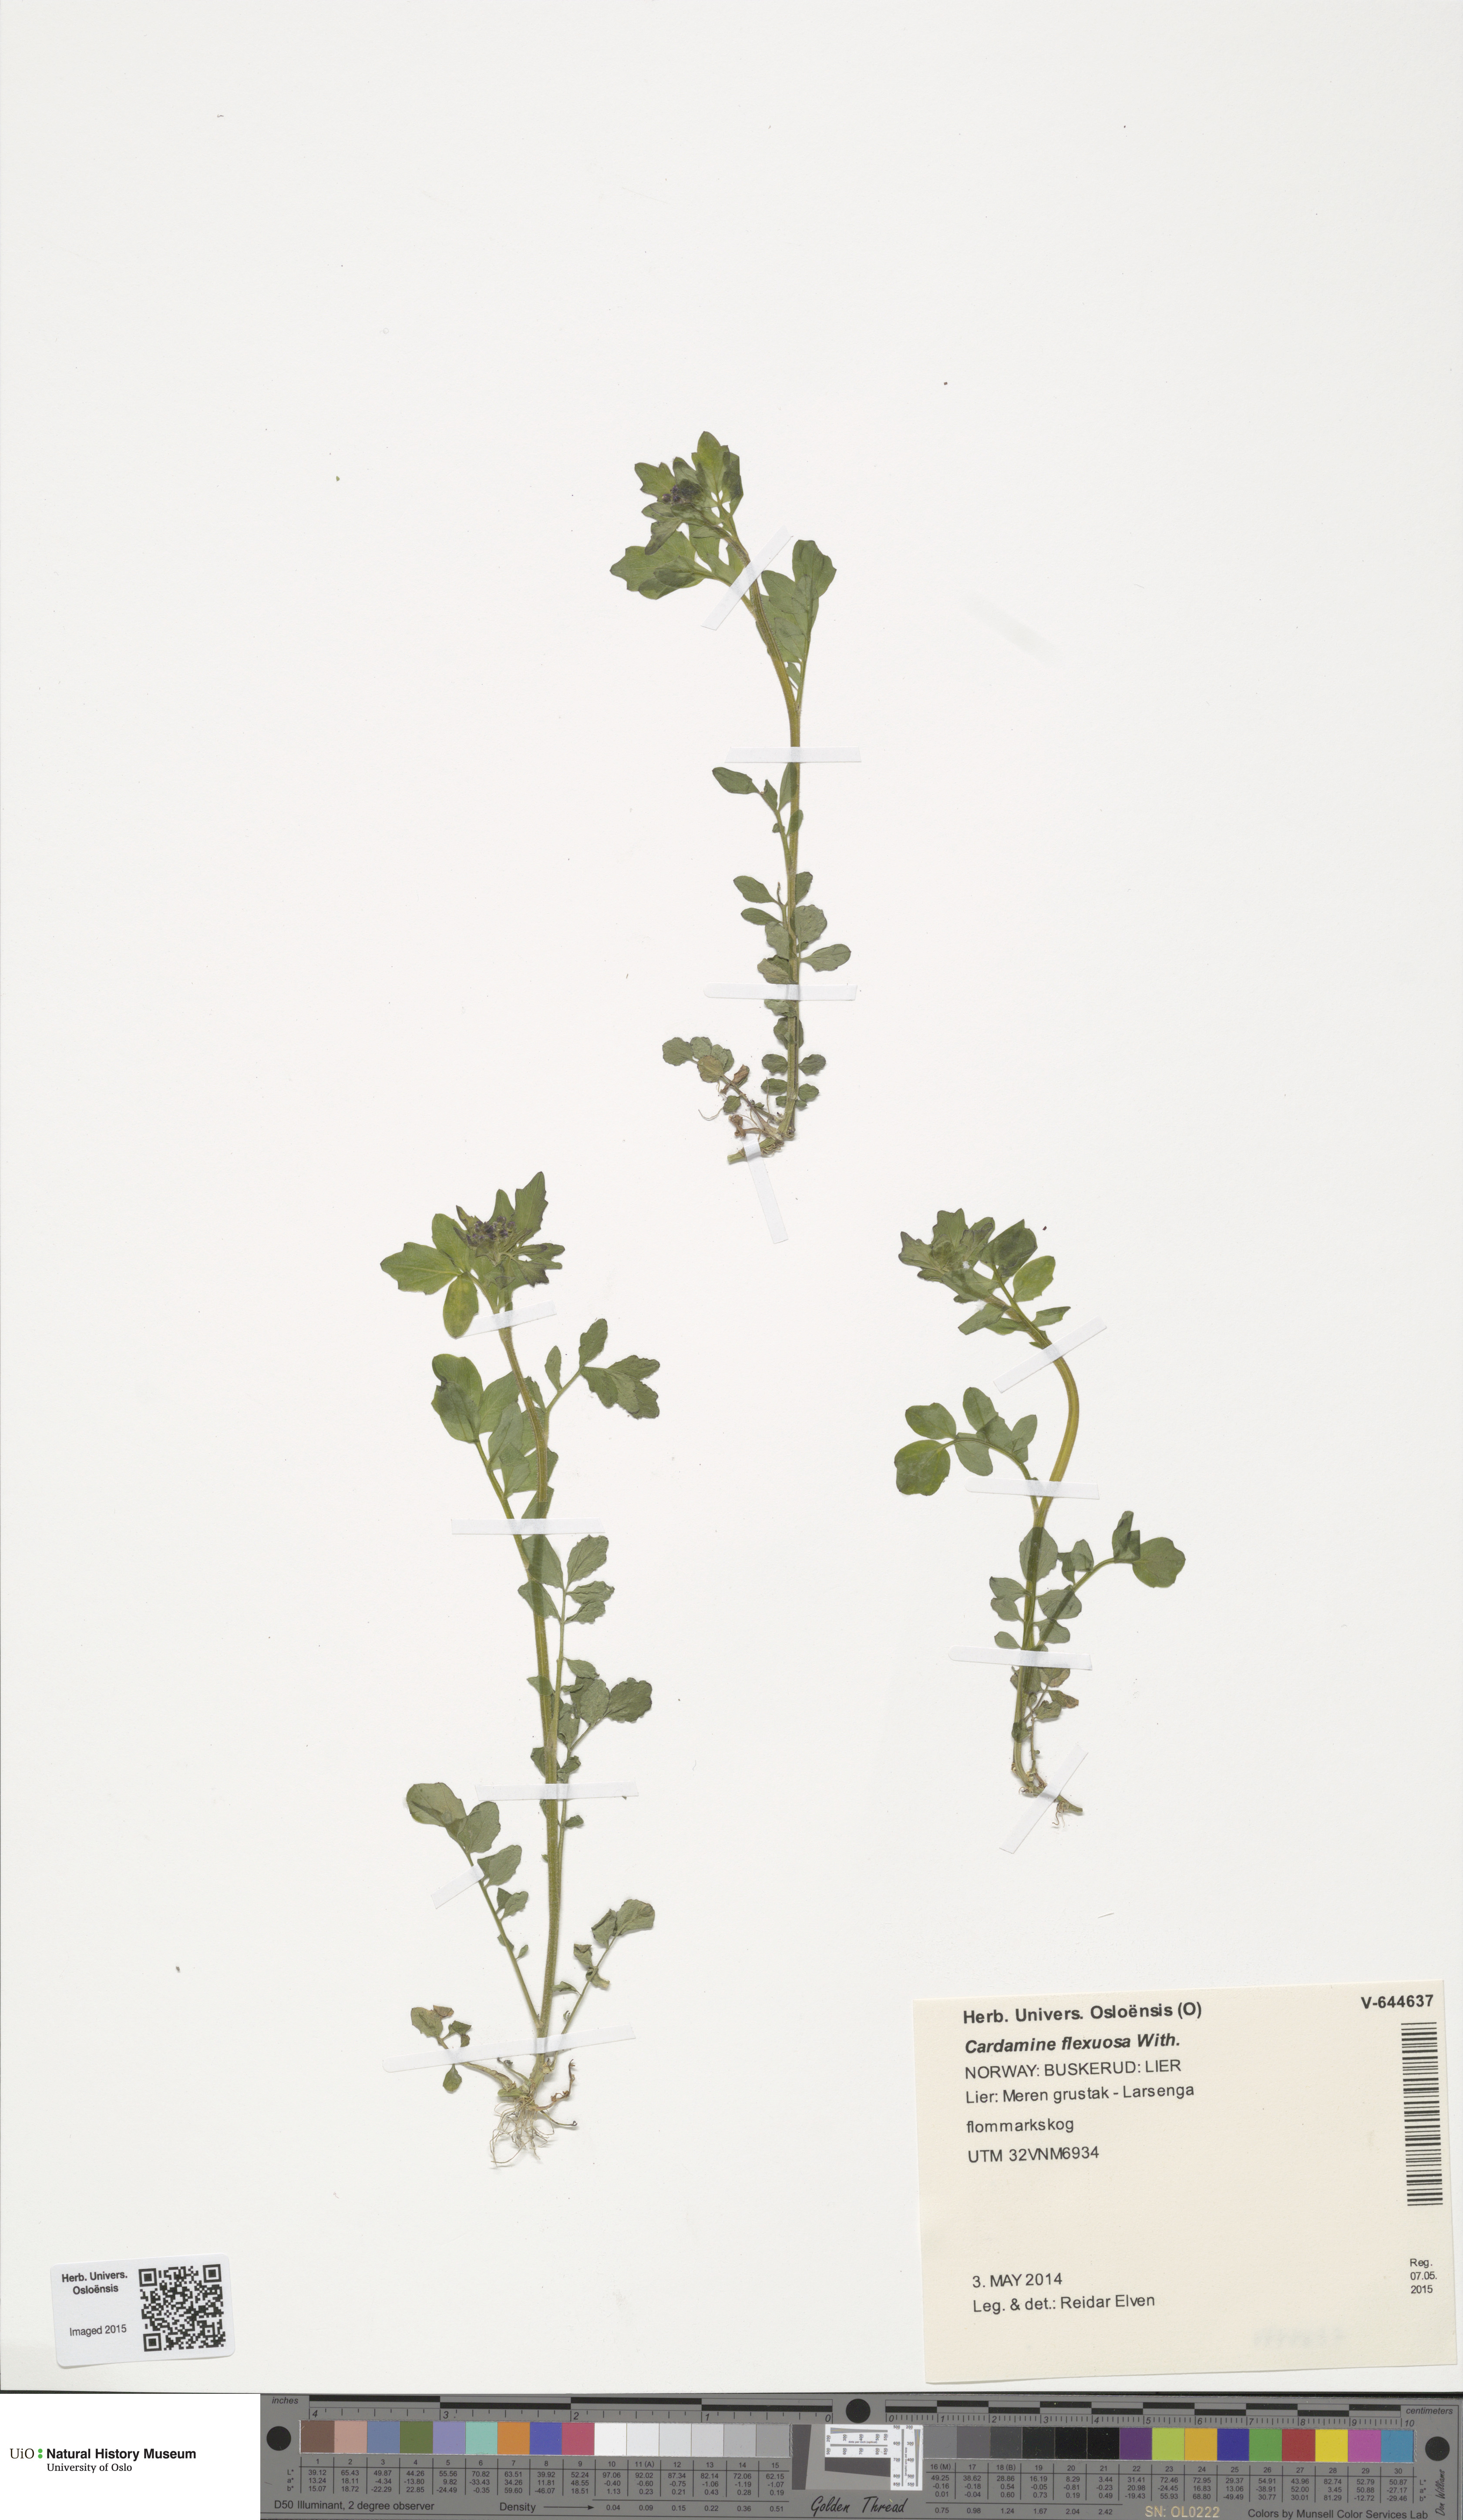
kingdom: Plantae
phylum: Tracheophyta
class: Magnoliopsida
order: Brassicales
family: Brassicaceae
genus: Cardamine
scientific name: Cardamine flexuosa
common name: Woodland bittercress
